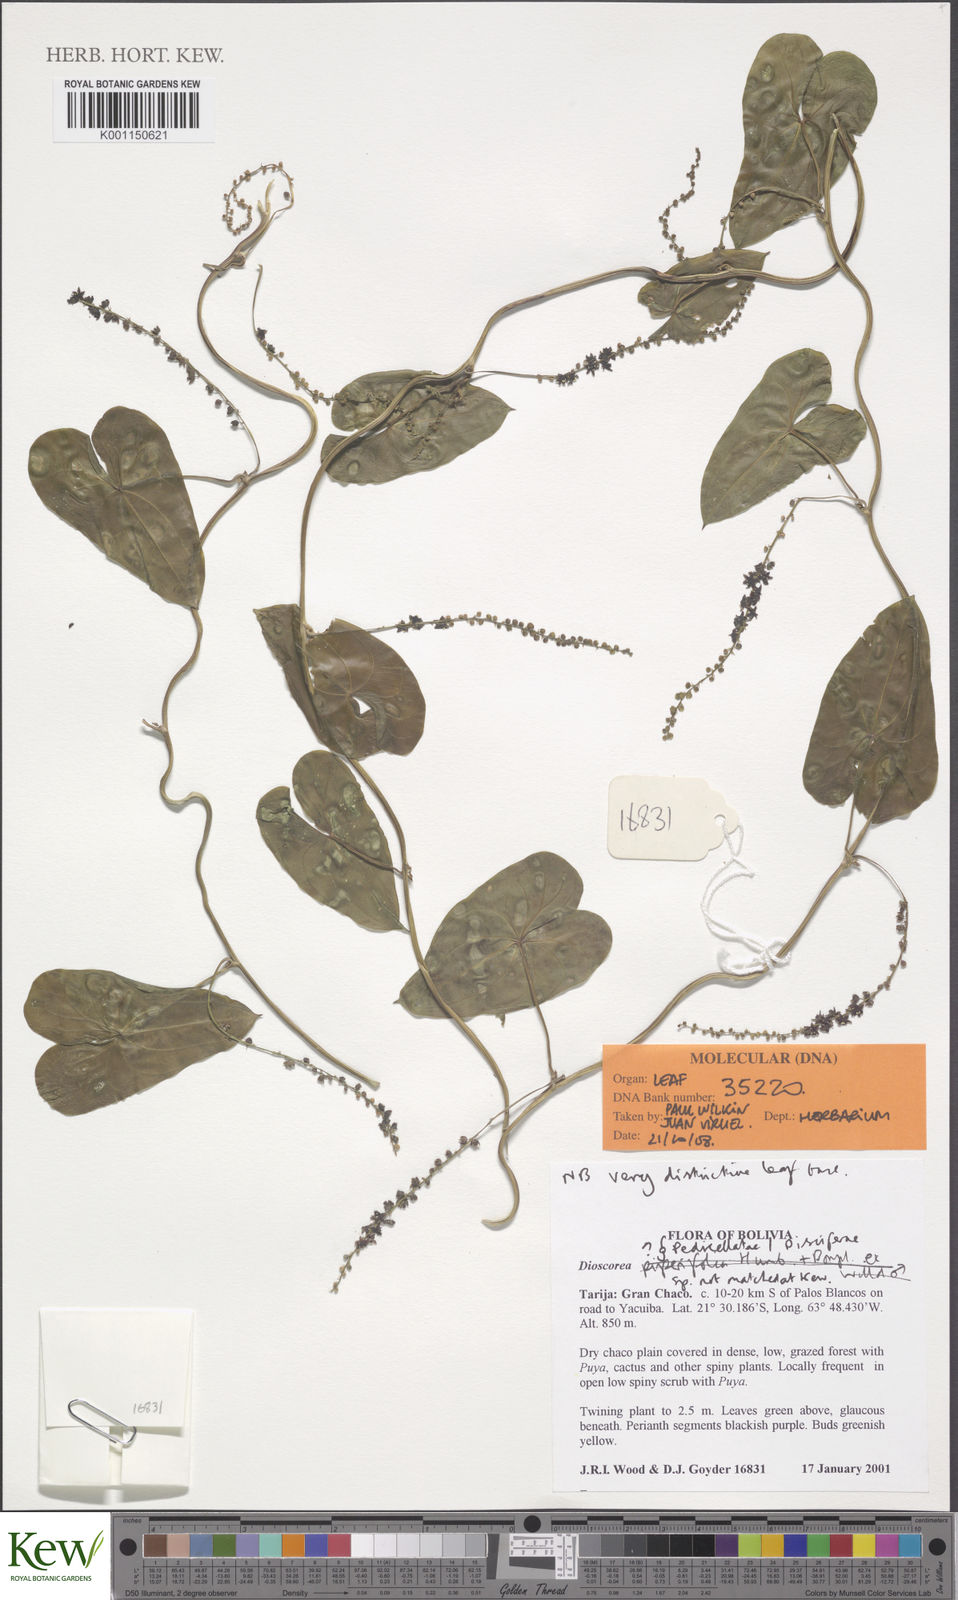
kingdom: Plantae
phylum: Tracheophyta
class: Liliopsida
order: Dioscoreales
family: Dioscoreaceae
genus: Dioscorea
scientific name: Dioscorea
